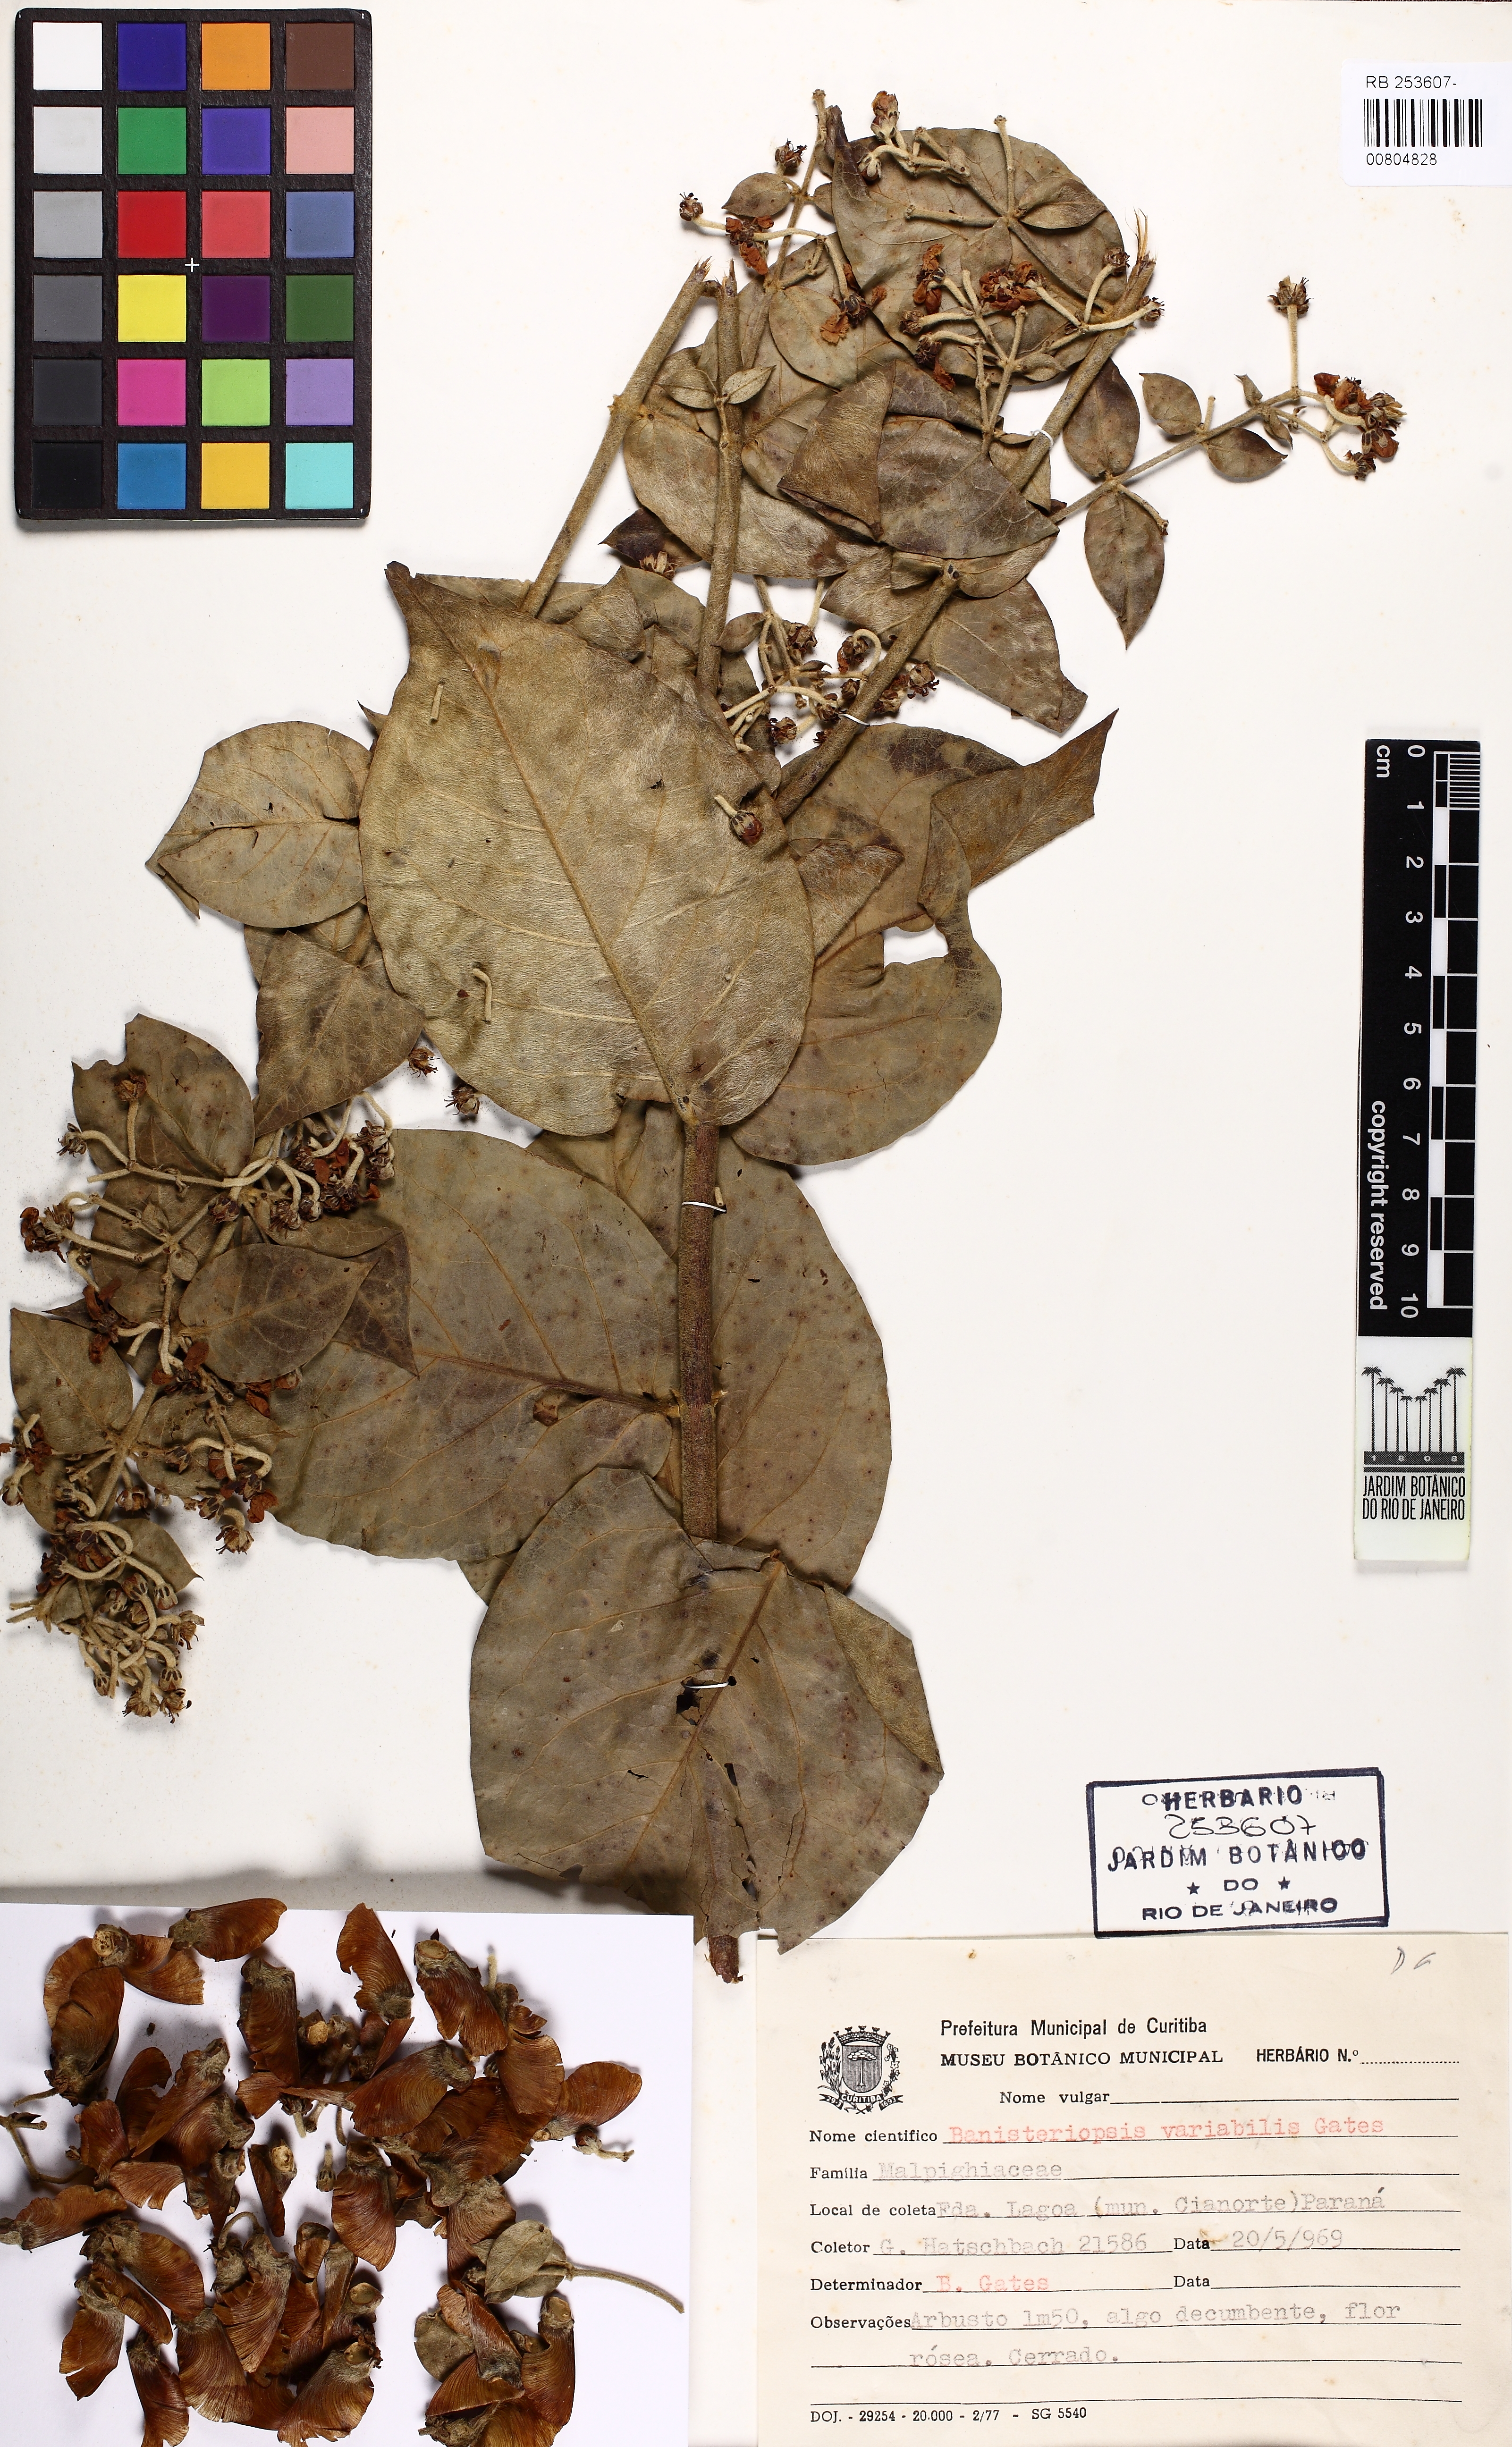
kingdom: Plantae
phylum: Tracheophyta
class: Magnoliopsida
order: Malpighiales
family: Malpighiaceae
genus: Banisteriopsis
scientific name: Banisteriopsis variabilis
